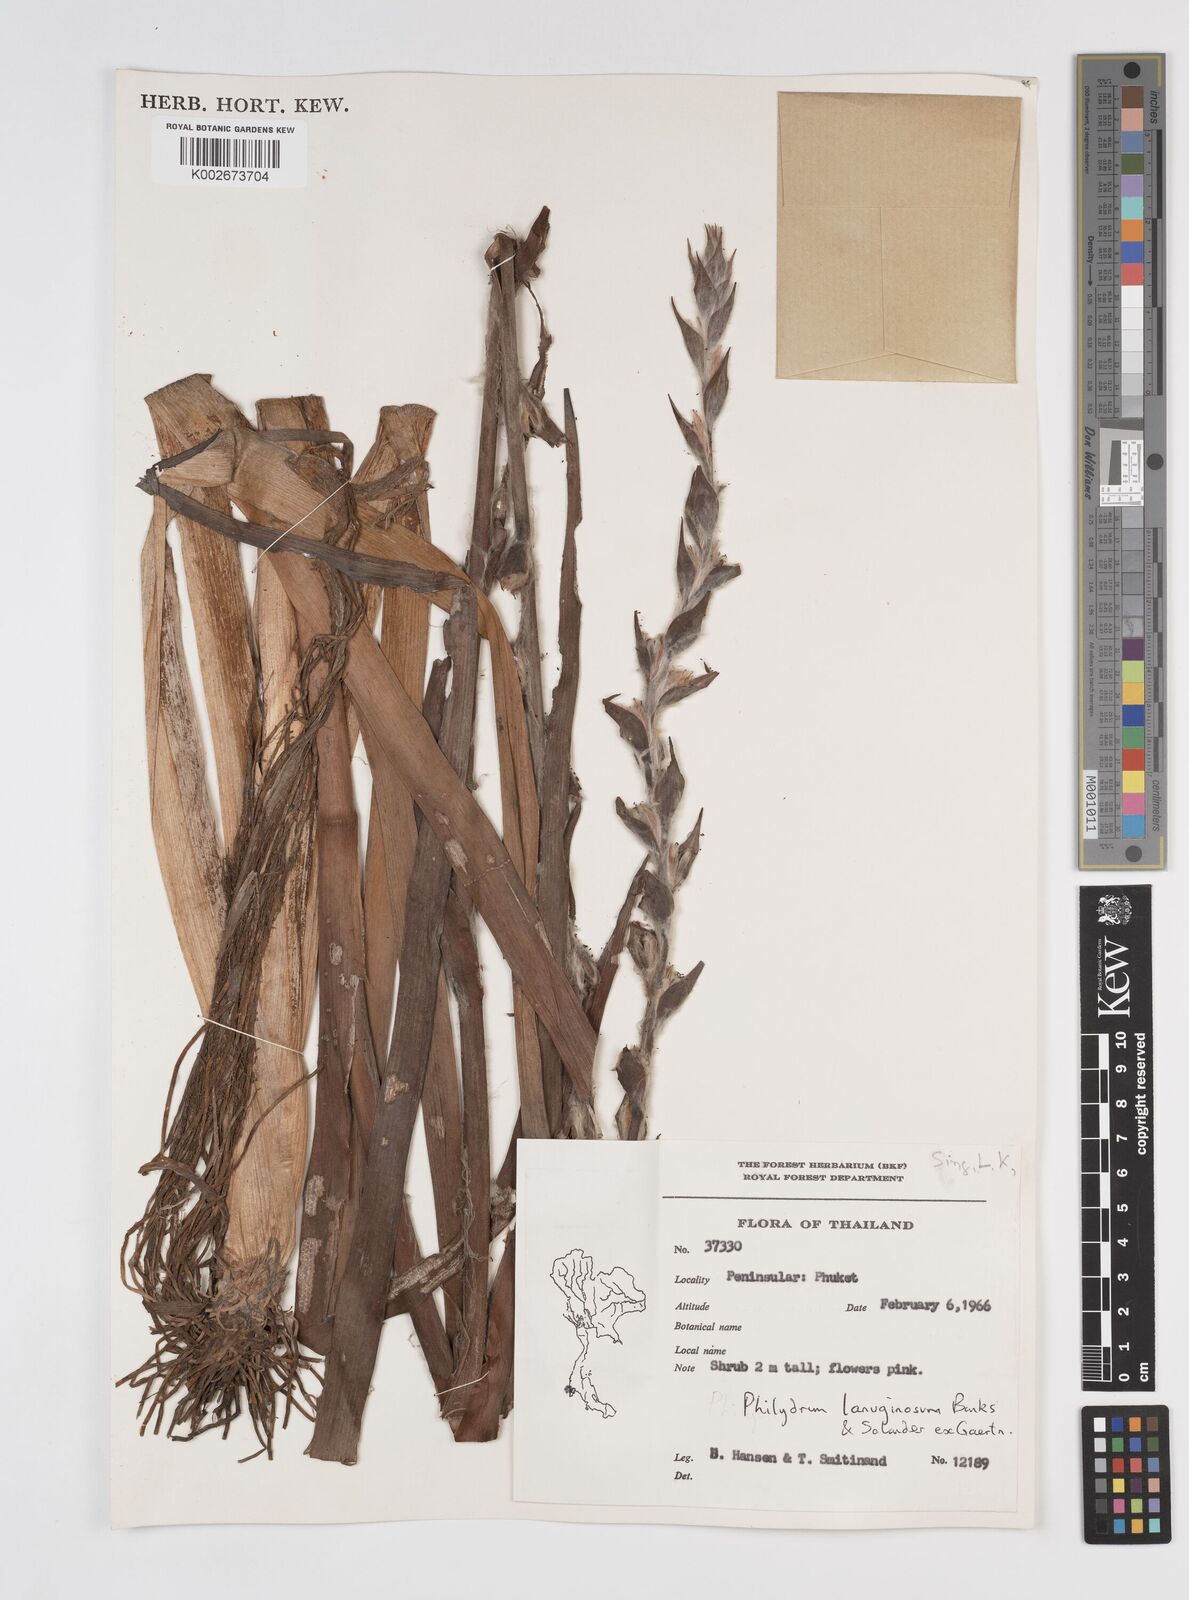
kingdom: Plantae
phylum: Tracheophyta
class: Liliopsida
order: Commelinales
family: Philydraceae
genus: Philydrum
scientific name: Philydrum lanuginosum
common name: Woolly frog's mouth
